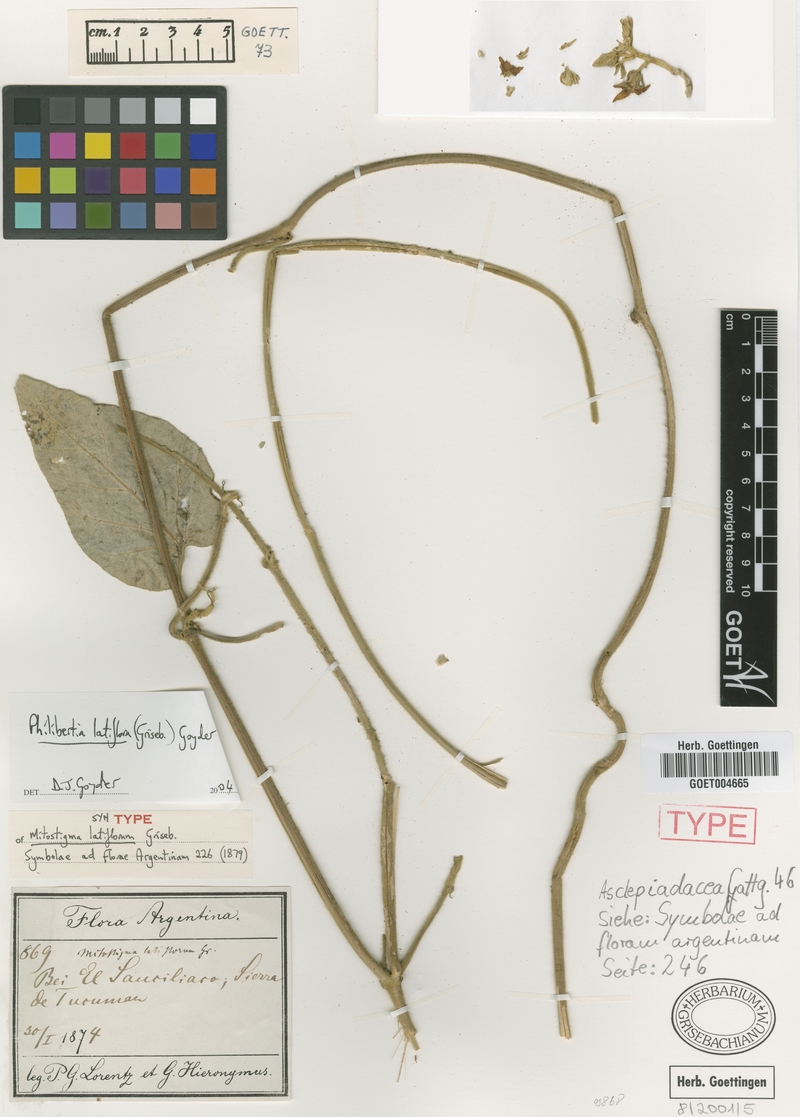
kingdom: Plantae
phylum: Tracheophyta
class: Magnoliopsida
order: Gentianales
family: Apocynaceae
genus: Philibertia
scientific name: Philibertia latiflora
